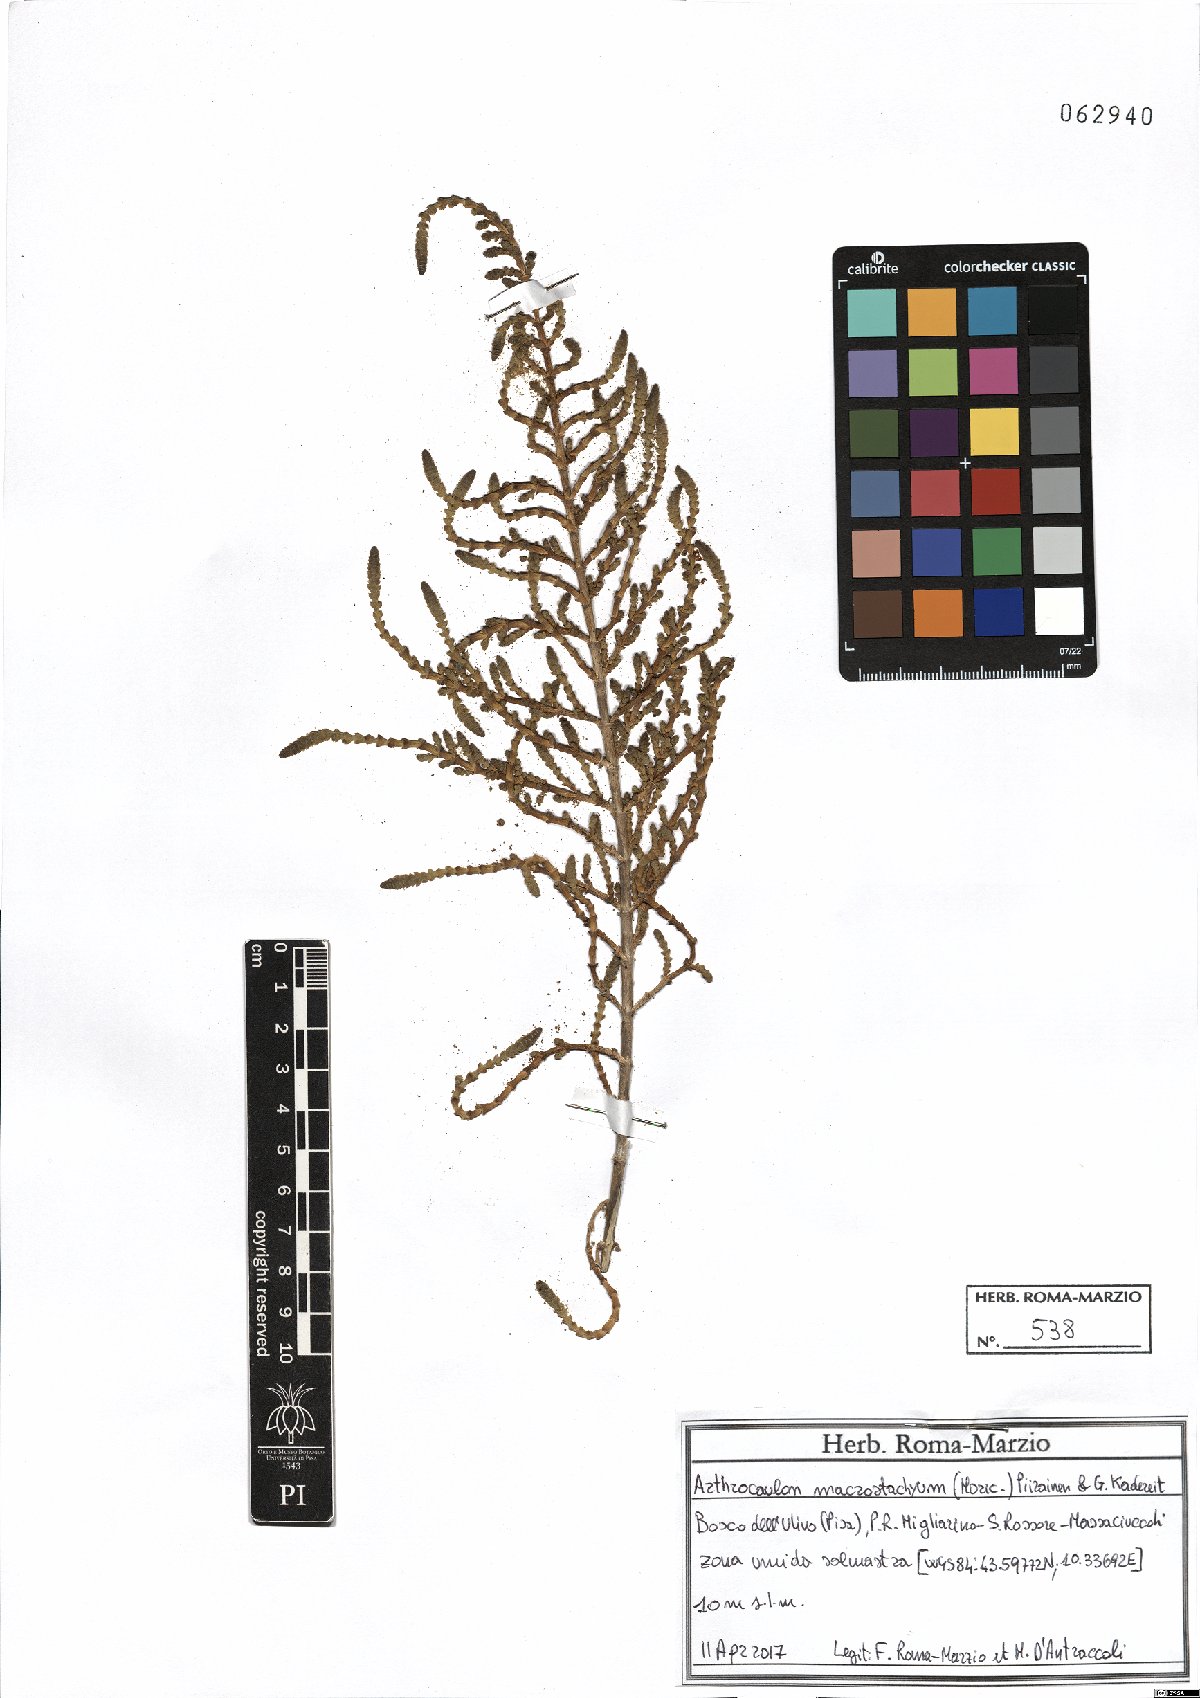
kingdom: Plantae
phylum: Tracheophyta
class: Magnoliopsida
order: Caryophyllales
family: Amaranthaceae
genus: Arthrocaulon
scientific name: Arthrocaulon macrostachyum
